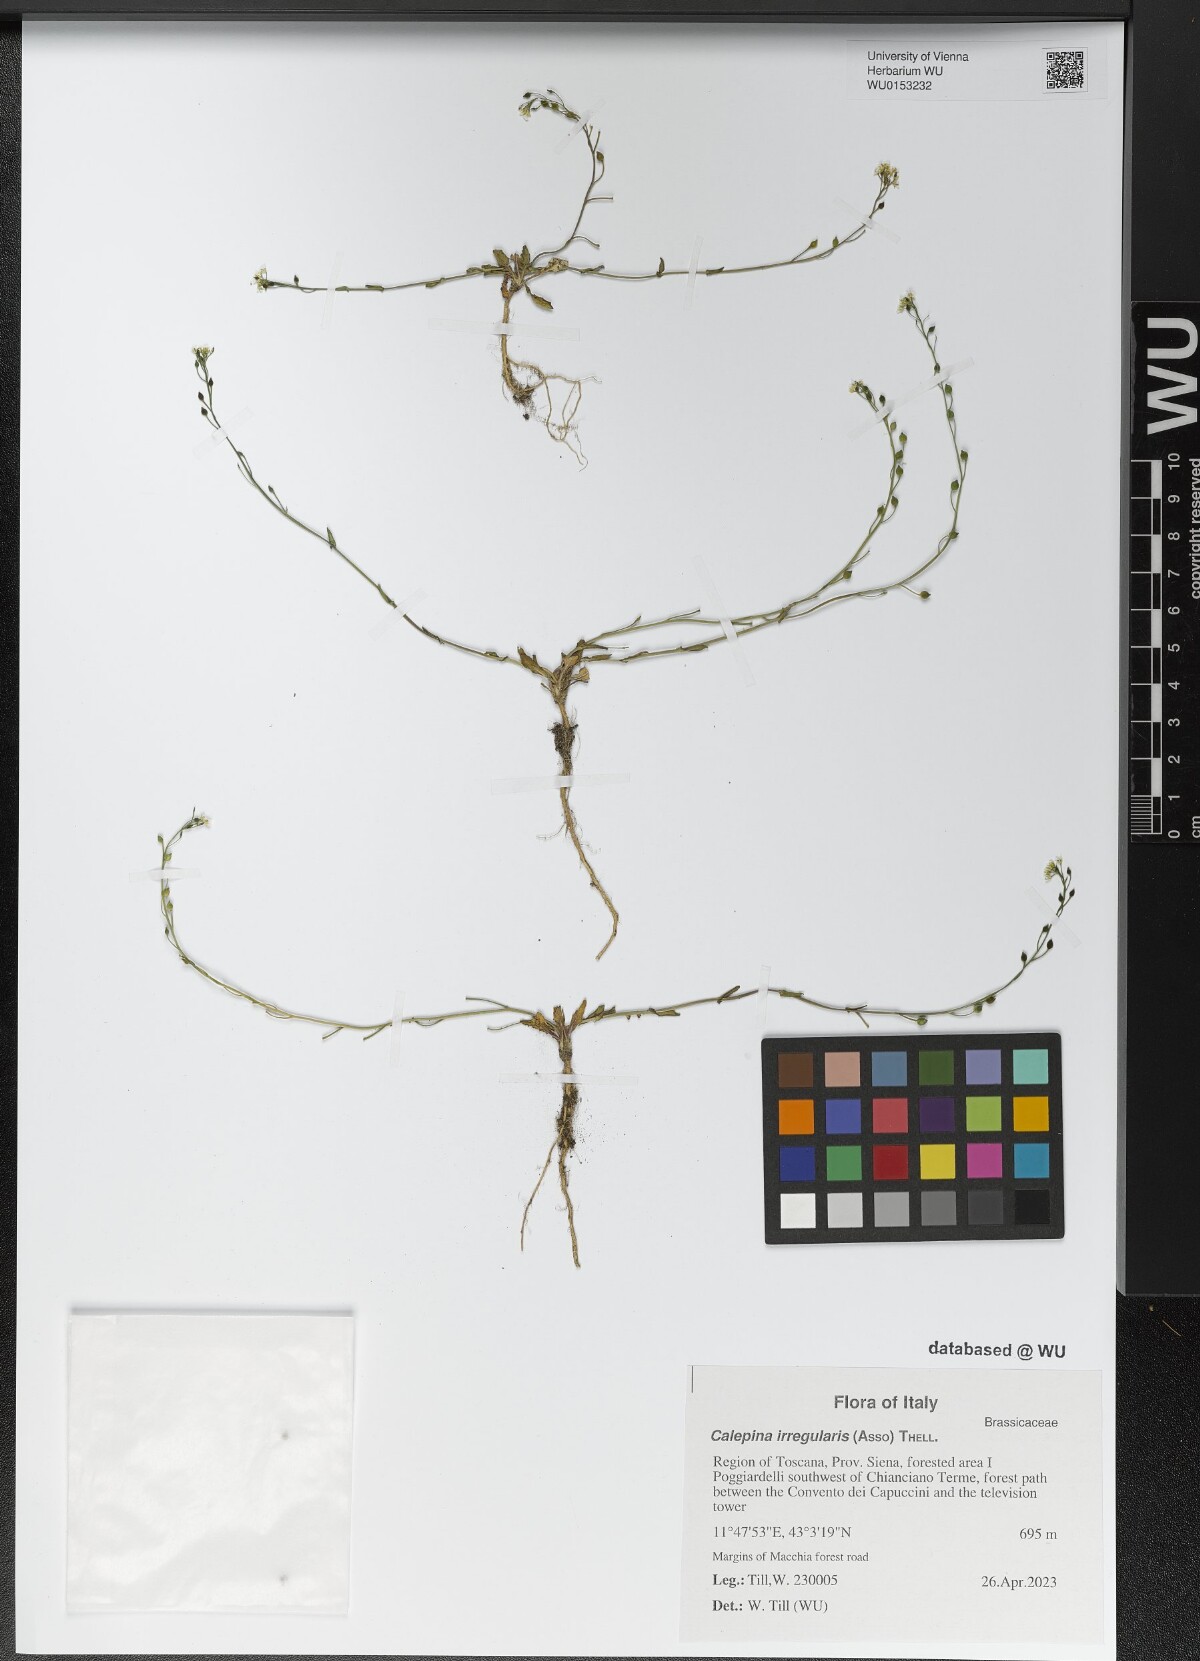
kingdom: Plantae
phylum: Tracheophyta
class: Magnoliopsida
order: Brassicales
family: Brassicaceae
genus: Calepina
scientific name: Calepina irregularis
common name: White ballmustard
